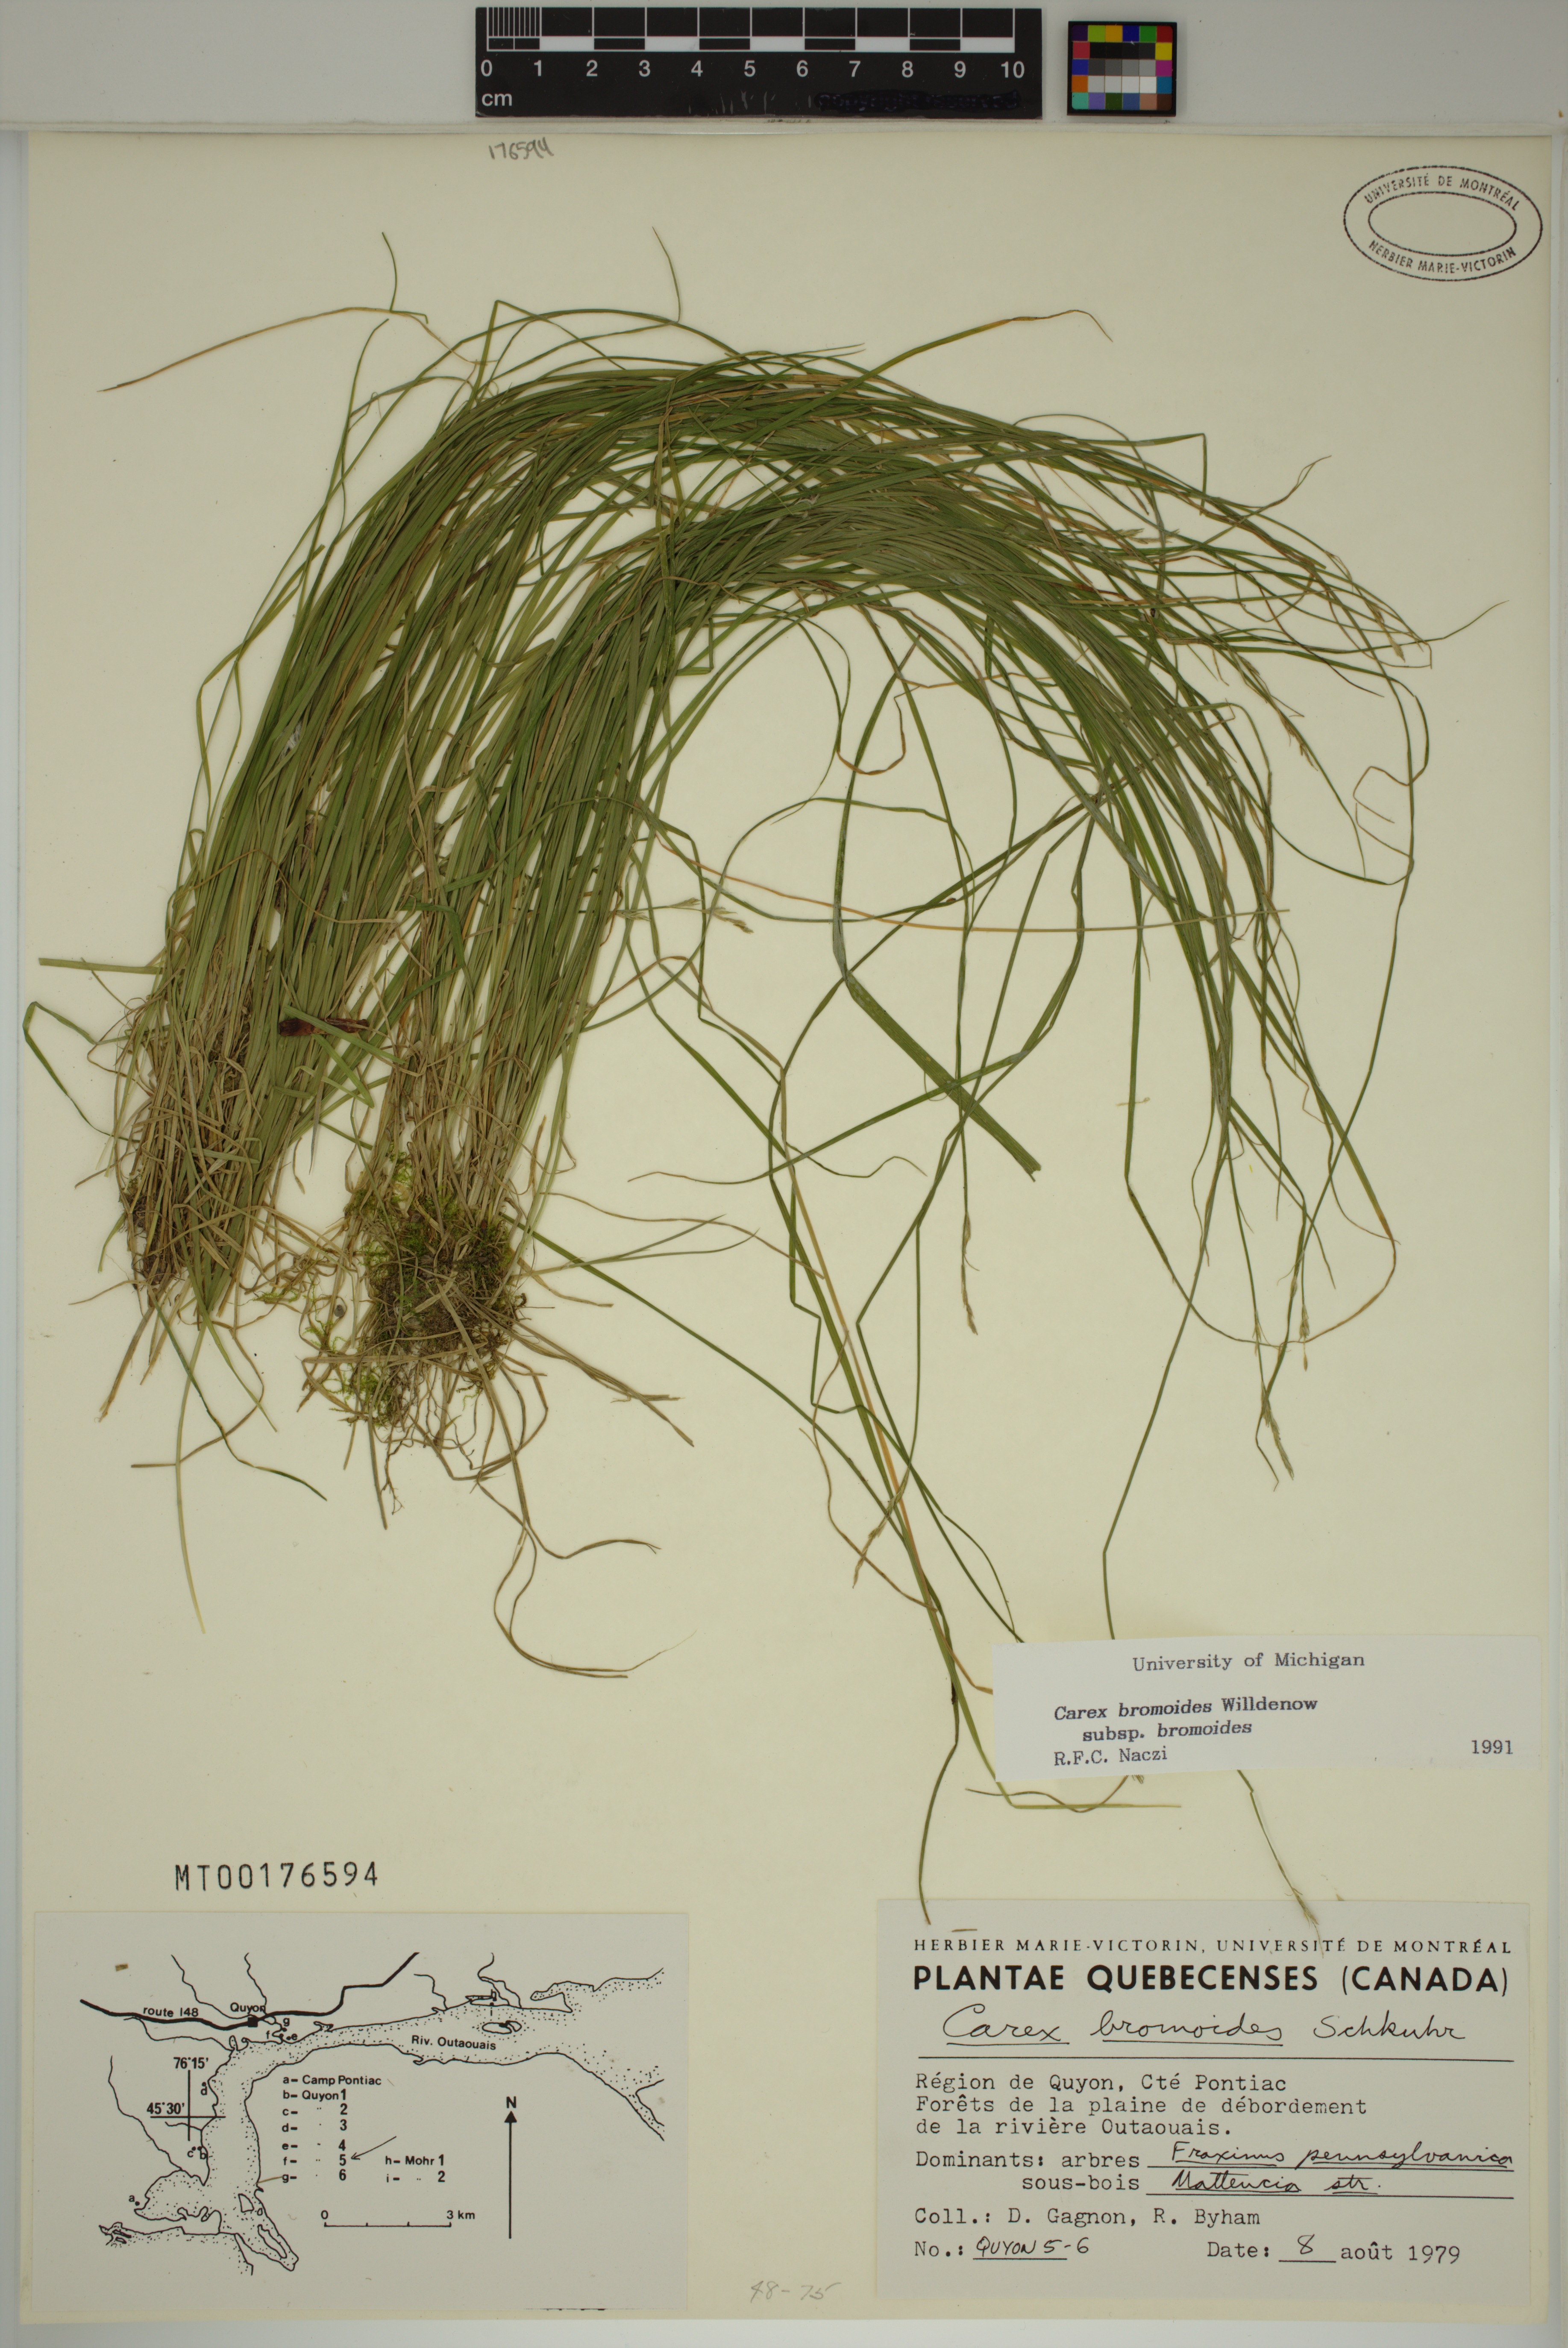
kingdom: Plantae
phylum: Tracheophyta
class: Liliopsida
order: Poales
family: Cyperaceae
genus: Carex
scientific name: Carex bromoides
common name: Brome hummock sedge
